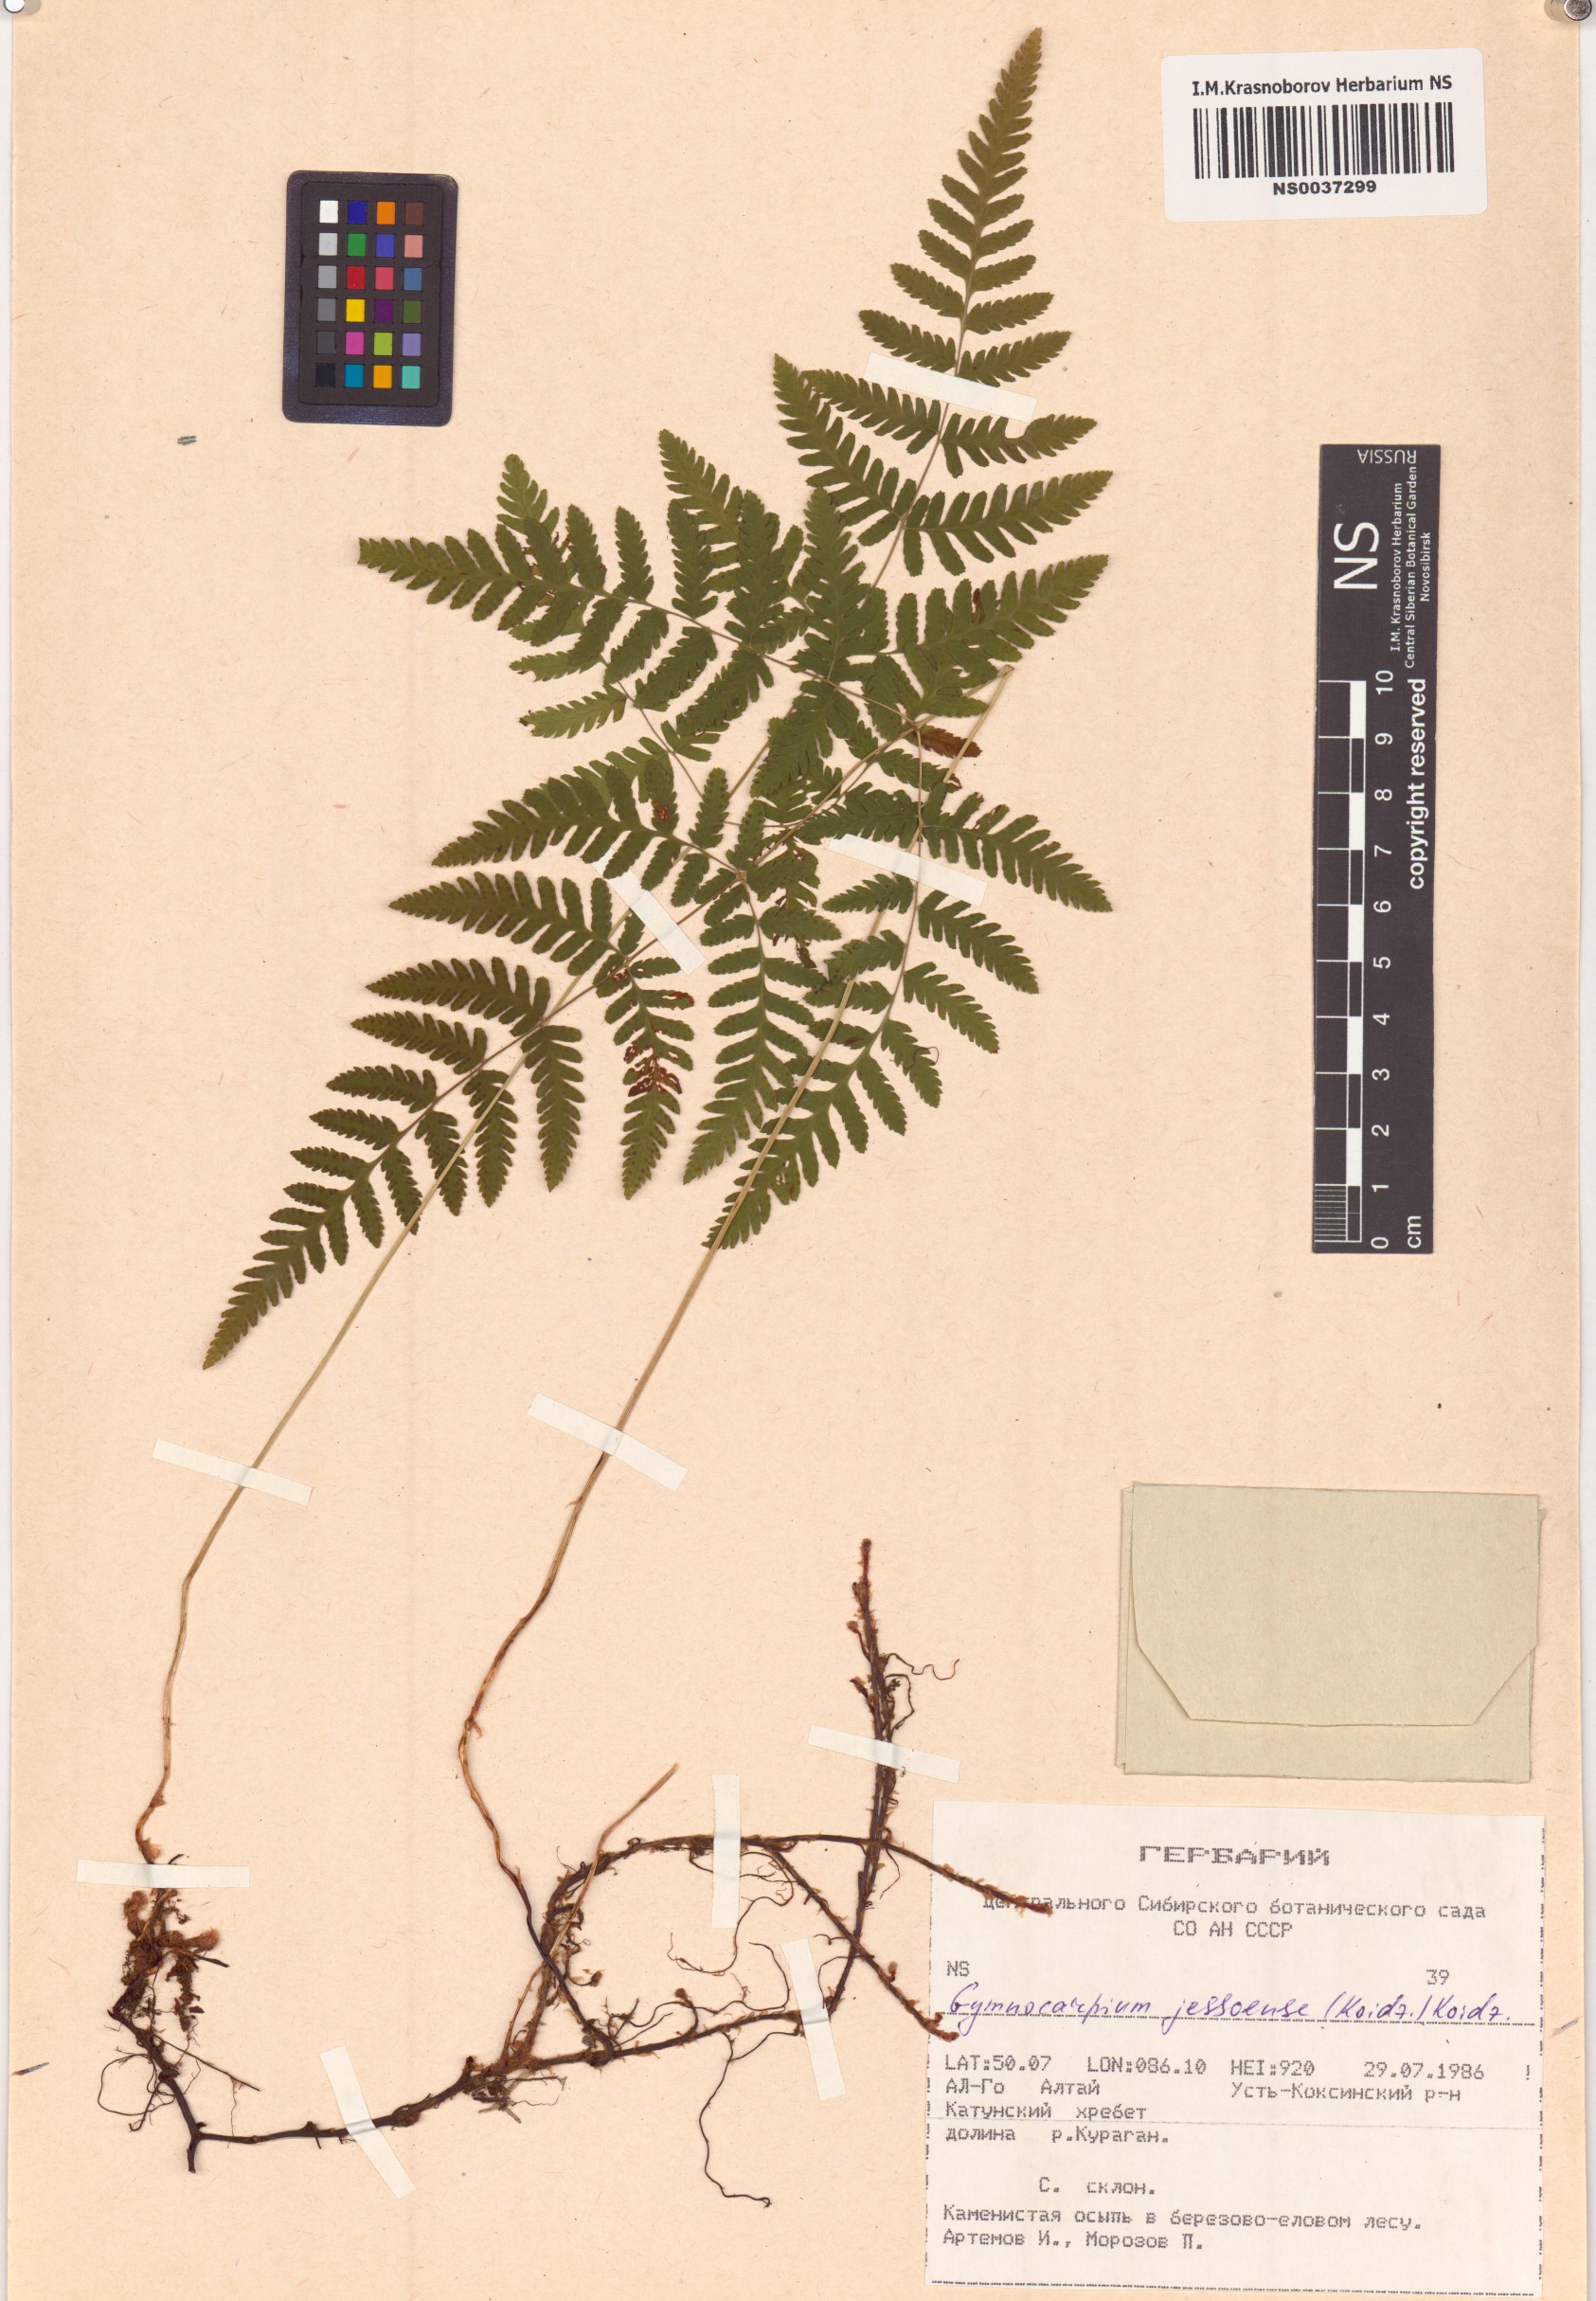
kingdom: Plantae
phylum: Tracheophyta
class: Polypodiopsida
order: Polypodiales
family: Cystopteridaceae
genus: Gymnocarpium
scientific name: Gymnocarpium jessoense
